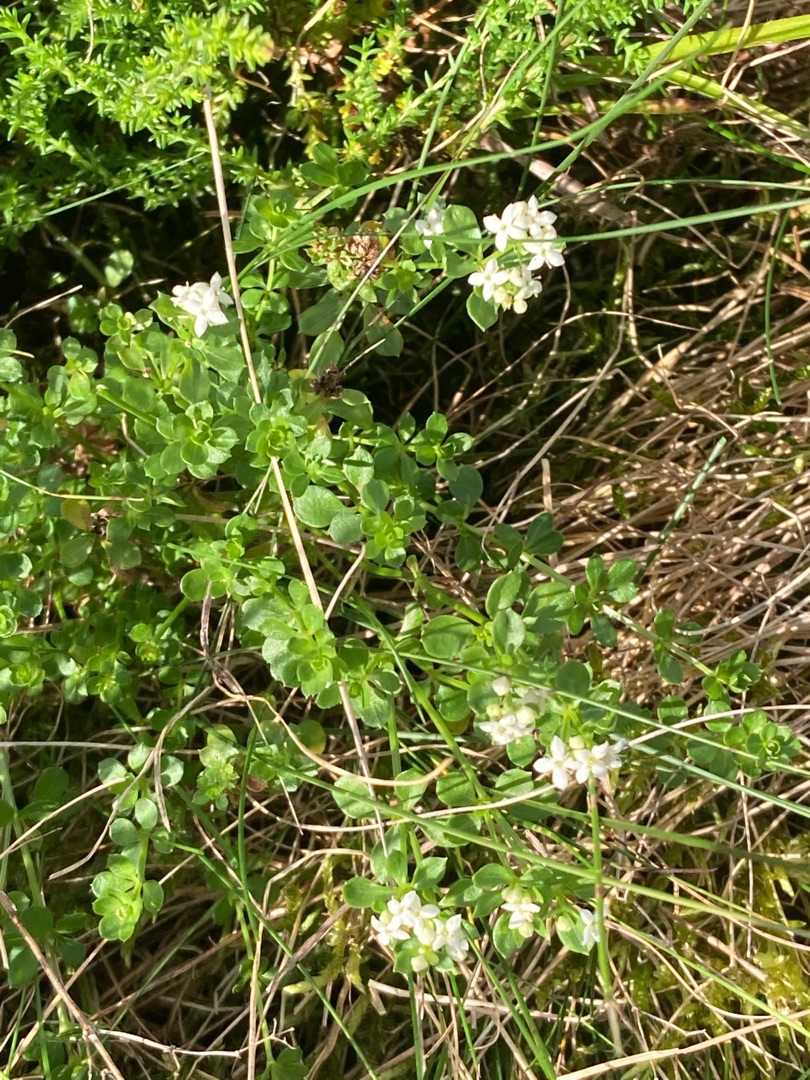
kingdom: Plantae
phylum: Tracheophyta
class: Magnoliopsida
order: Gentianales
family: Rubiaceae
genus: Galium
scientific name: Galium saxatile
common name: Lyng-snerre
